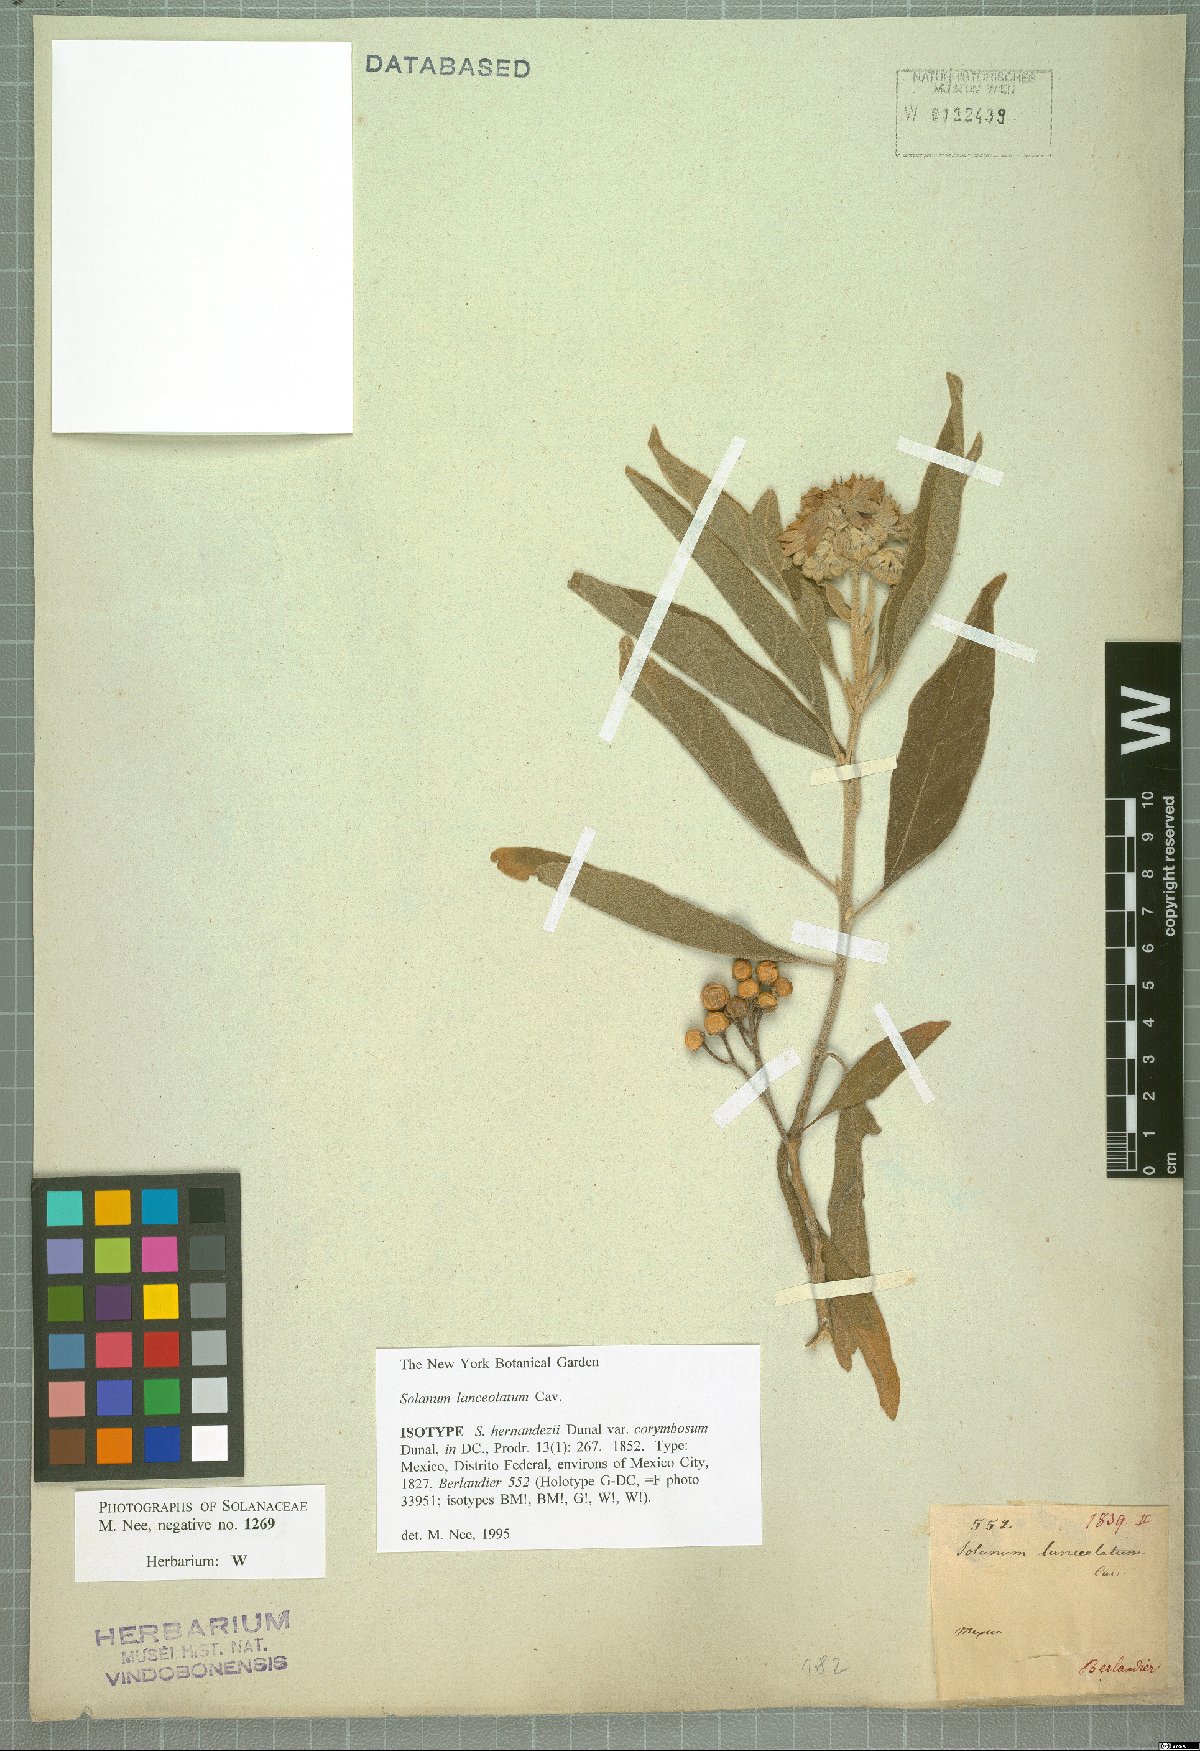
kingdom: Plantae
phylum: Tracheophyta
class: Magnoliopsida
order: Solanales
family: Solanaceae
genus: Solanum
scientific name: Solanum lanceolatum
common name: Orangeberry nightshade
